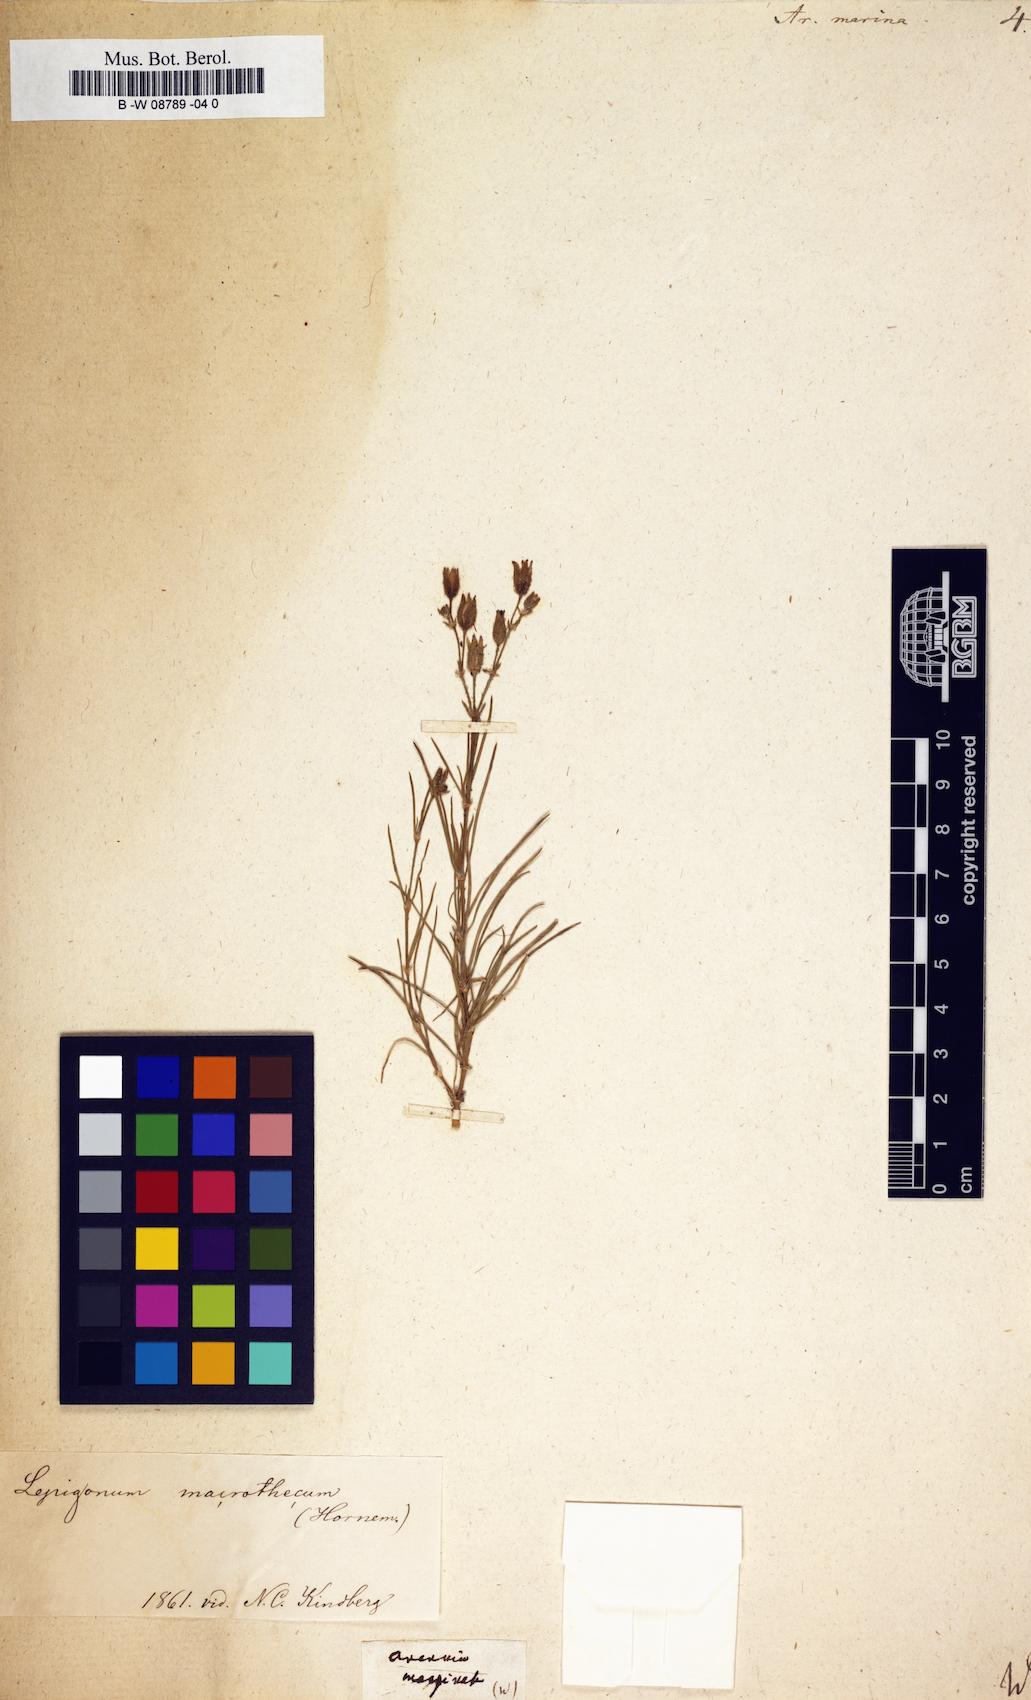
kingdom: Plantae
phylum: Tracheophyta
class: Magnoliopsida
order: Caryophyllales
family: Caryophyllaceae
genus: Arenaria
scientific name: Arenaria marina
